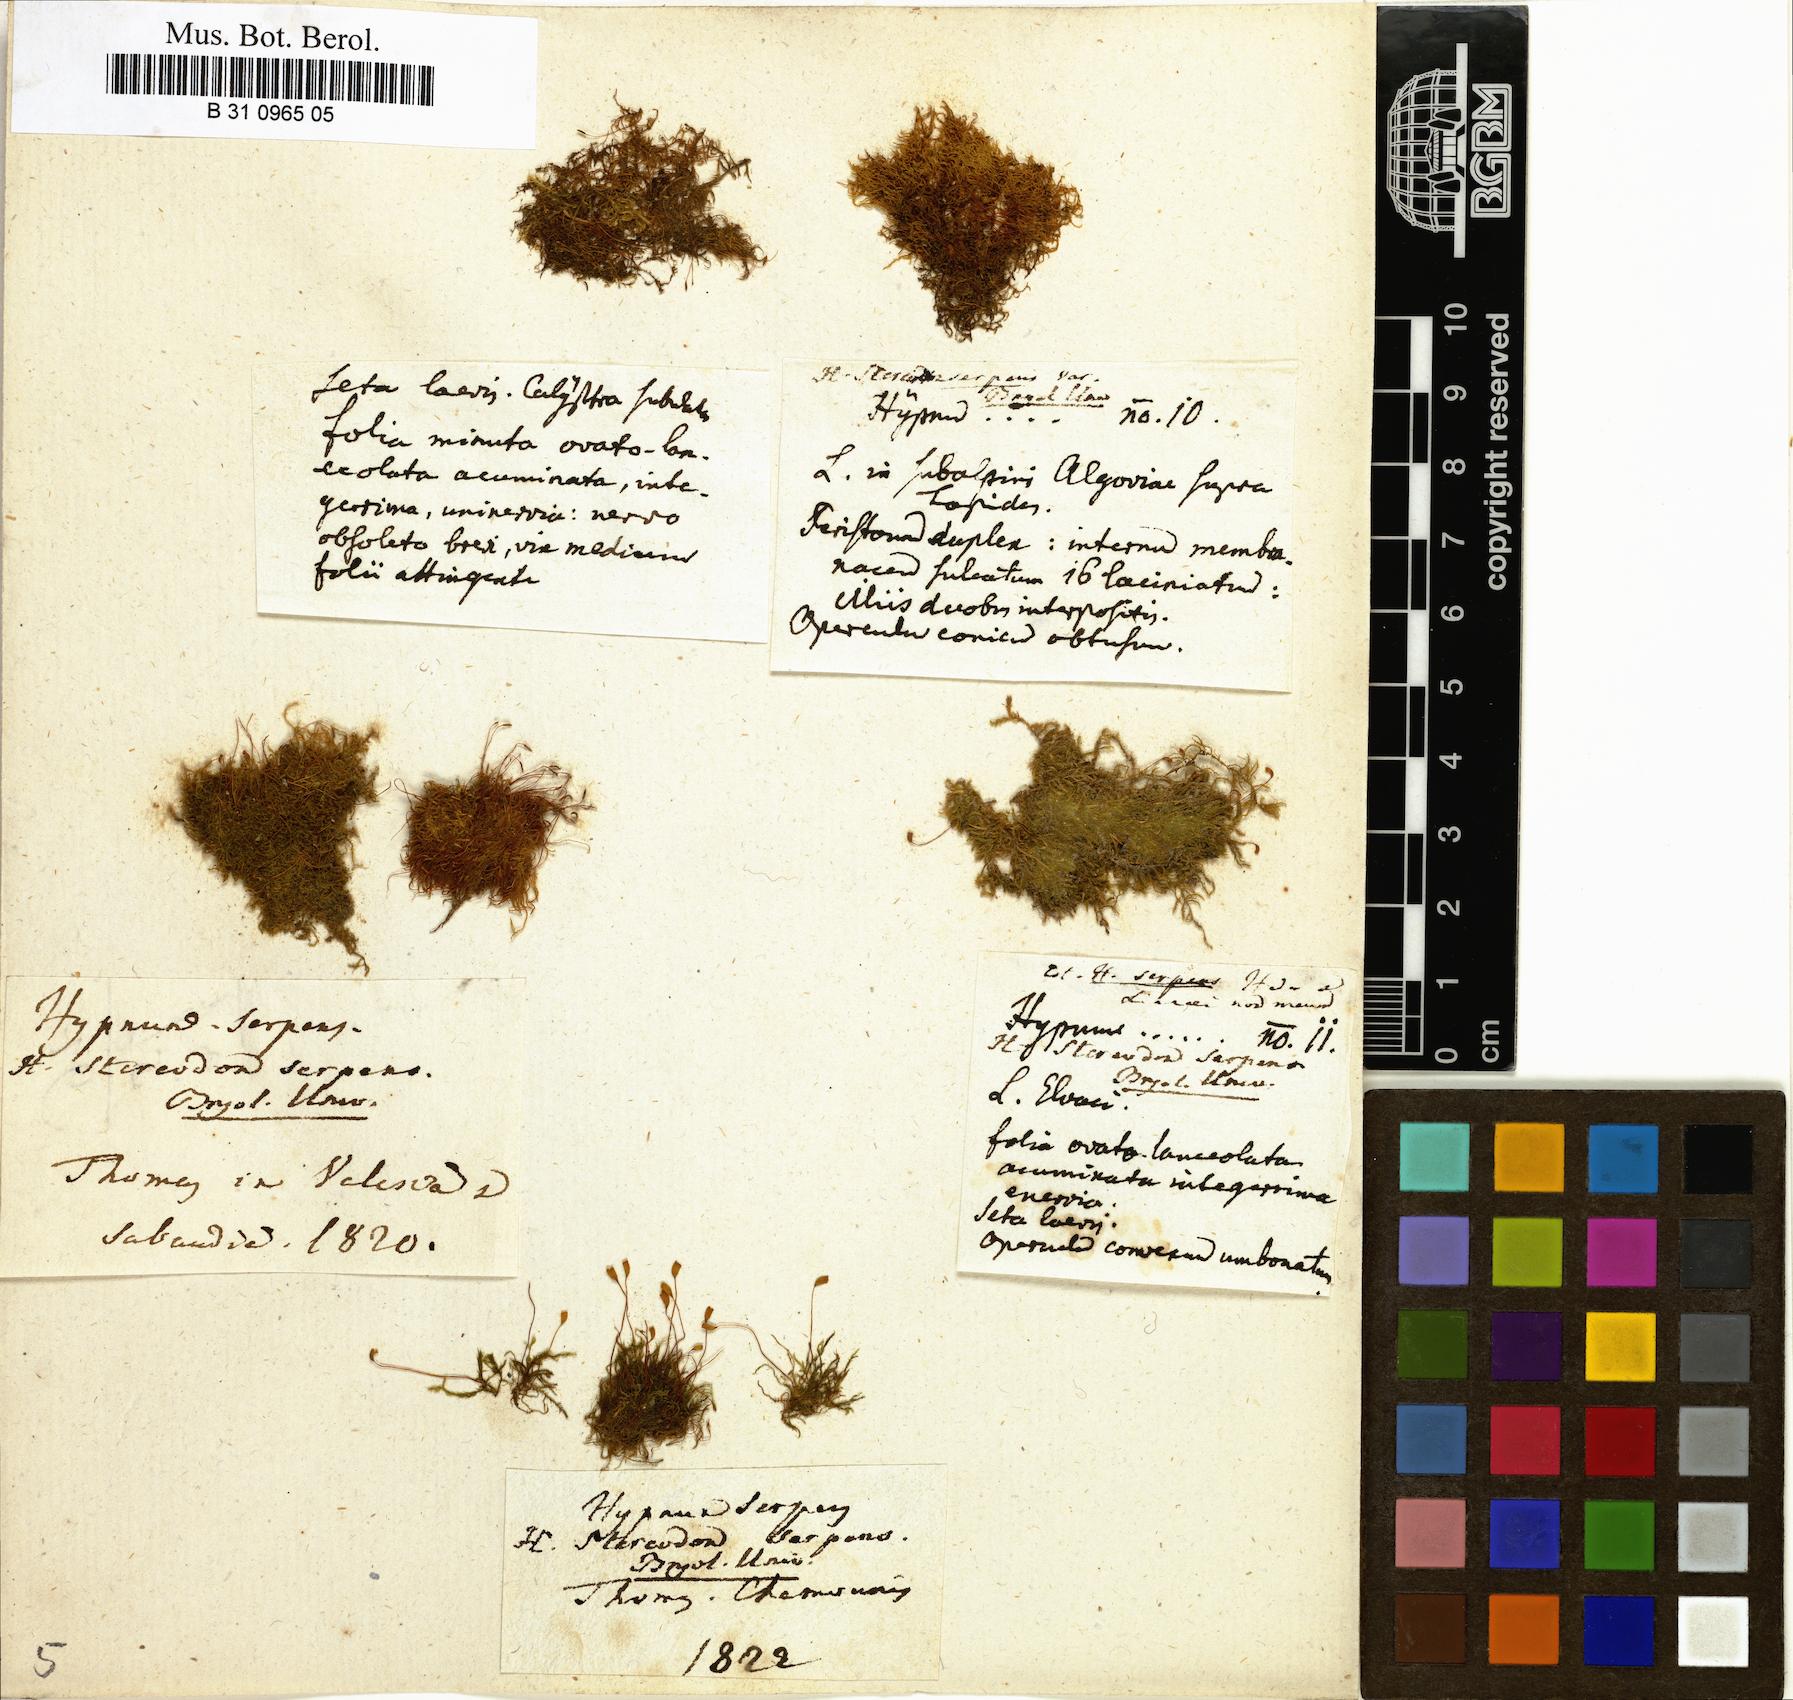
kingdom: Plantae
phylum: Bryophyta
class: Bryopsida
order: Hypnales
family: Amblystegiaceae
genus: Amblystegium
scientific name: Amblystegium serpens
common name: Jurkatzka's feather moss
